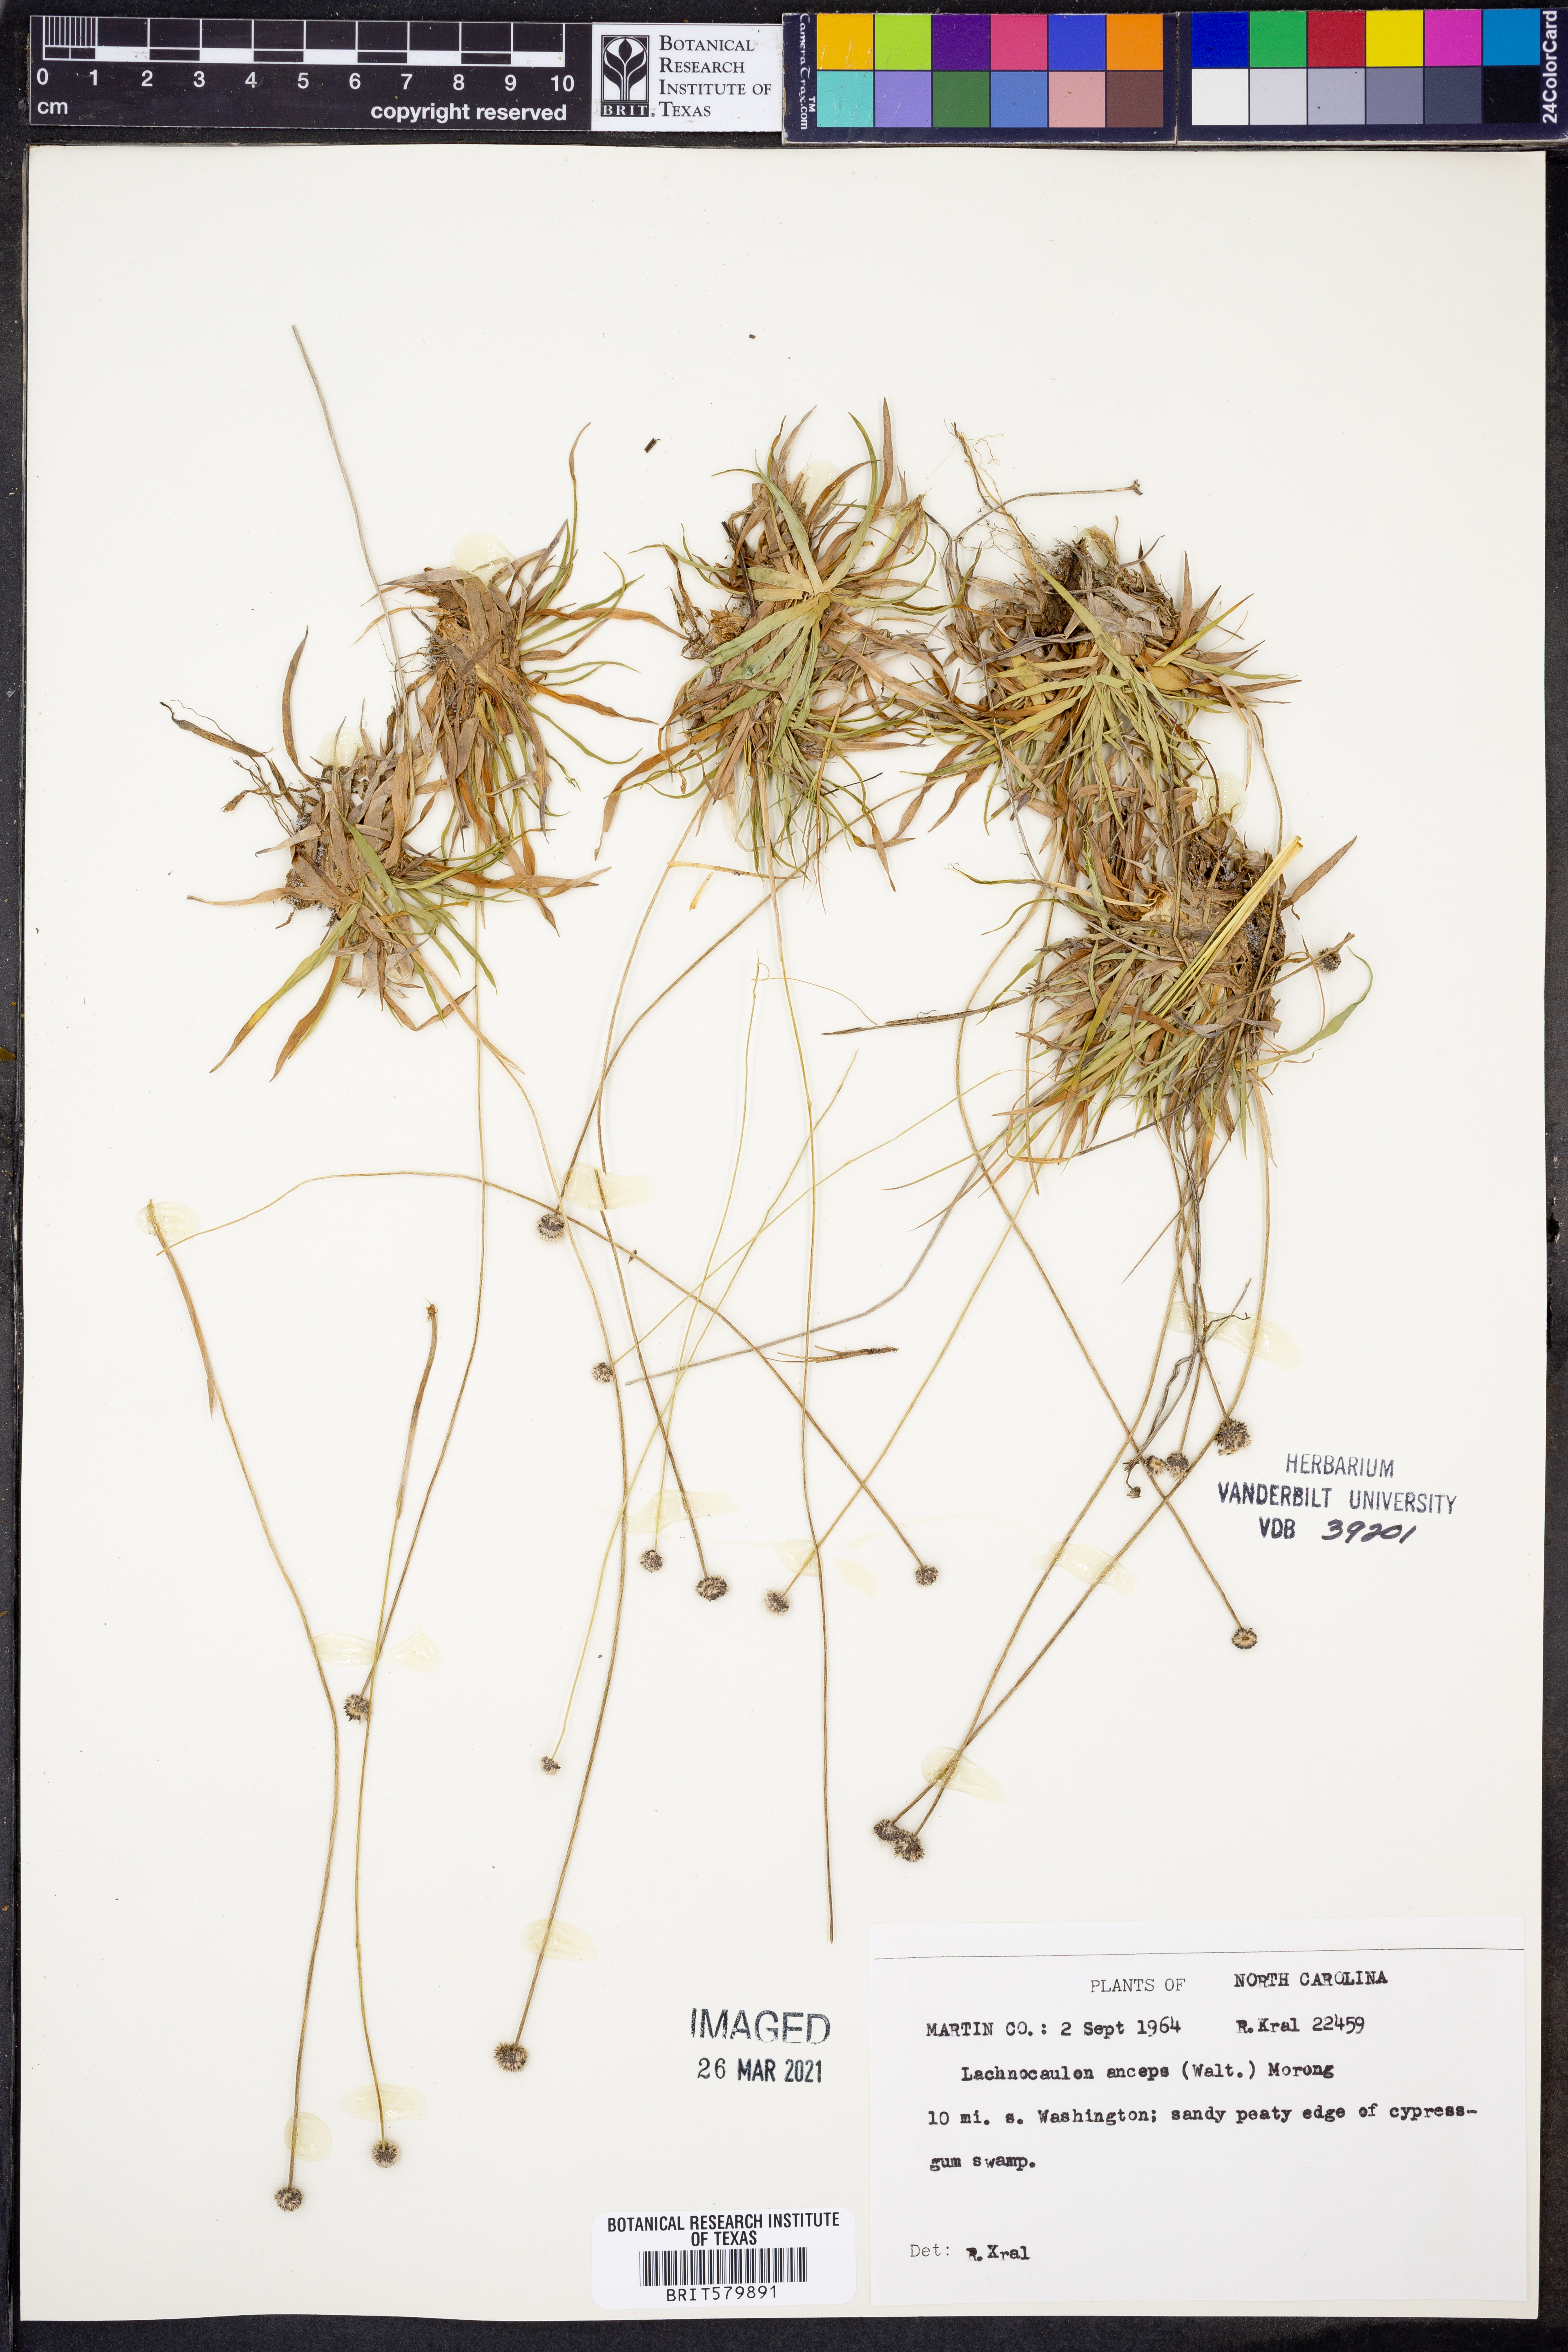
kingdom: Plantae
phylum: Tracheophyta
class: Liliopsida
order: Poales
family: Eriocaulaceae
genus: Paepalanthus
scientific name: Paepalanthus anceps
